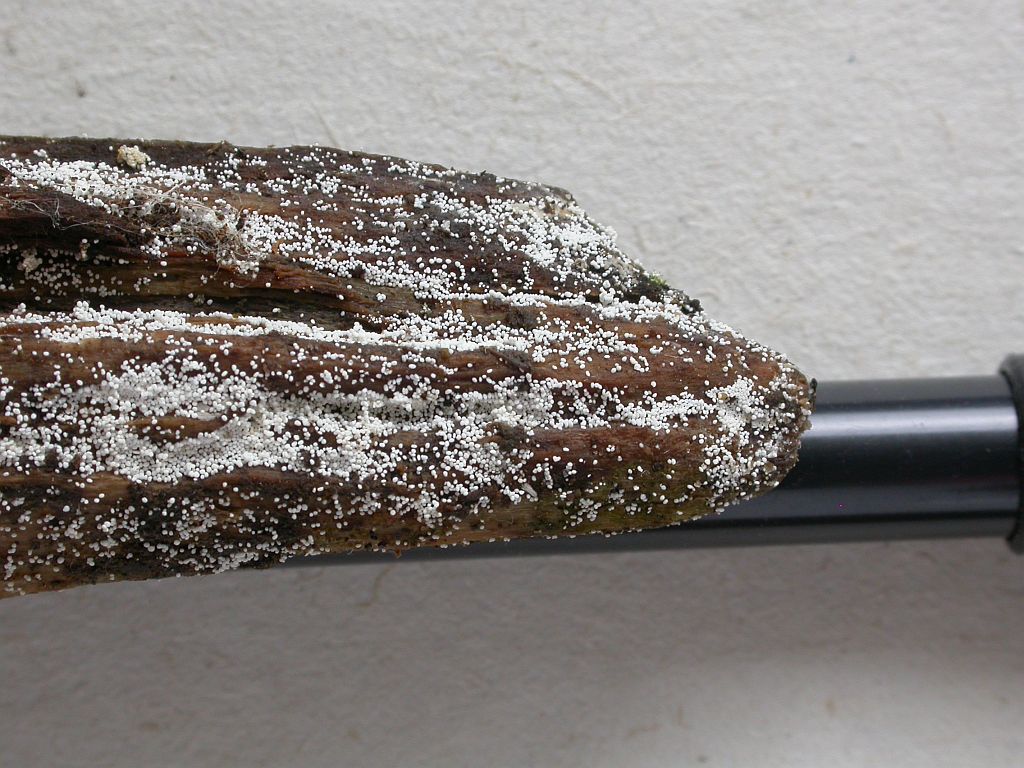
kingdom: Fungi
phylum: Basidiomycota
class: Agaricomycetes
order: Polyporales
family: Meruliaceae
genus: Bulbillomyces
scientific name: Bulbillomyces farinosus
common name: æg-kalkskind
